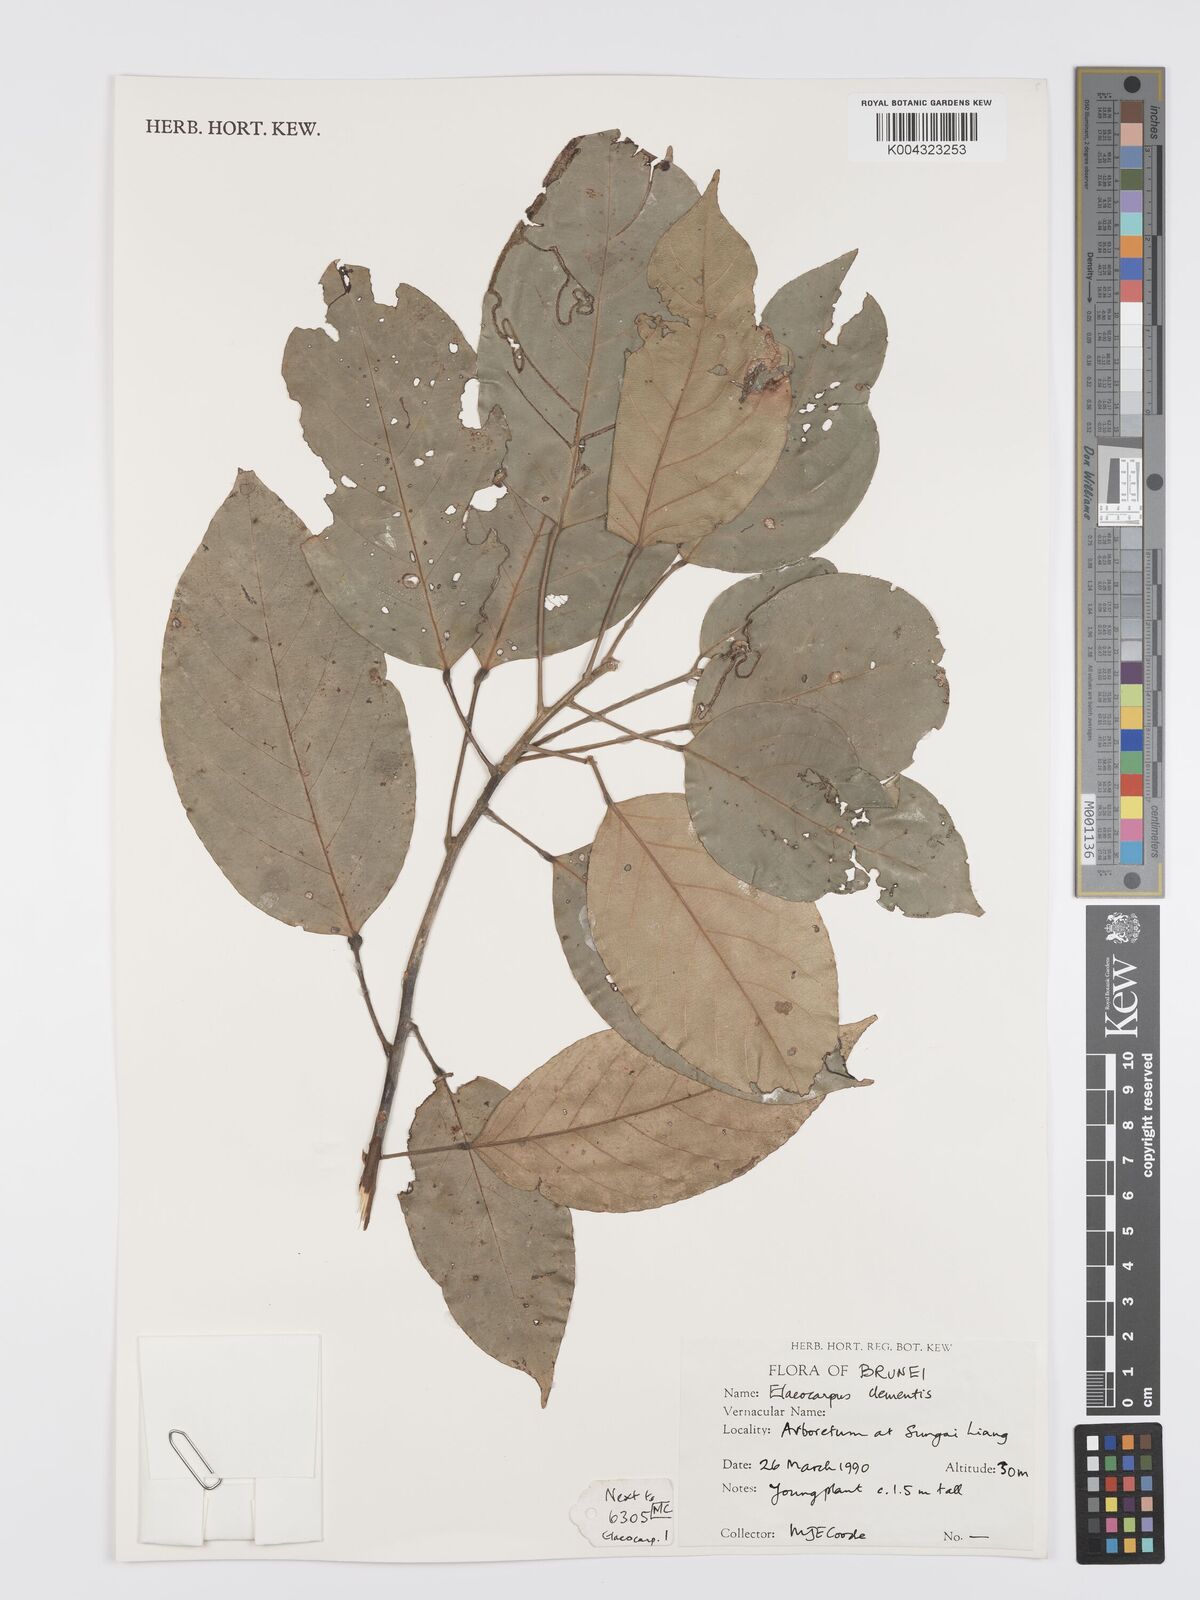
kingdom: Plantae
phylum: Tracheophyta
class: Magnoliopsida
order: Oxalidales
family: Elaeocarpaceae
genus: Elaeocarpus
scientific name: Elaeocarpus clementis
